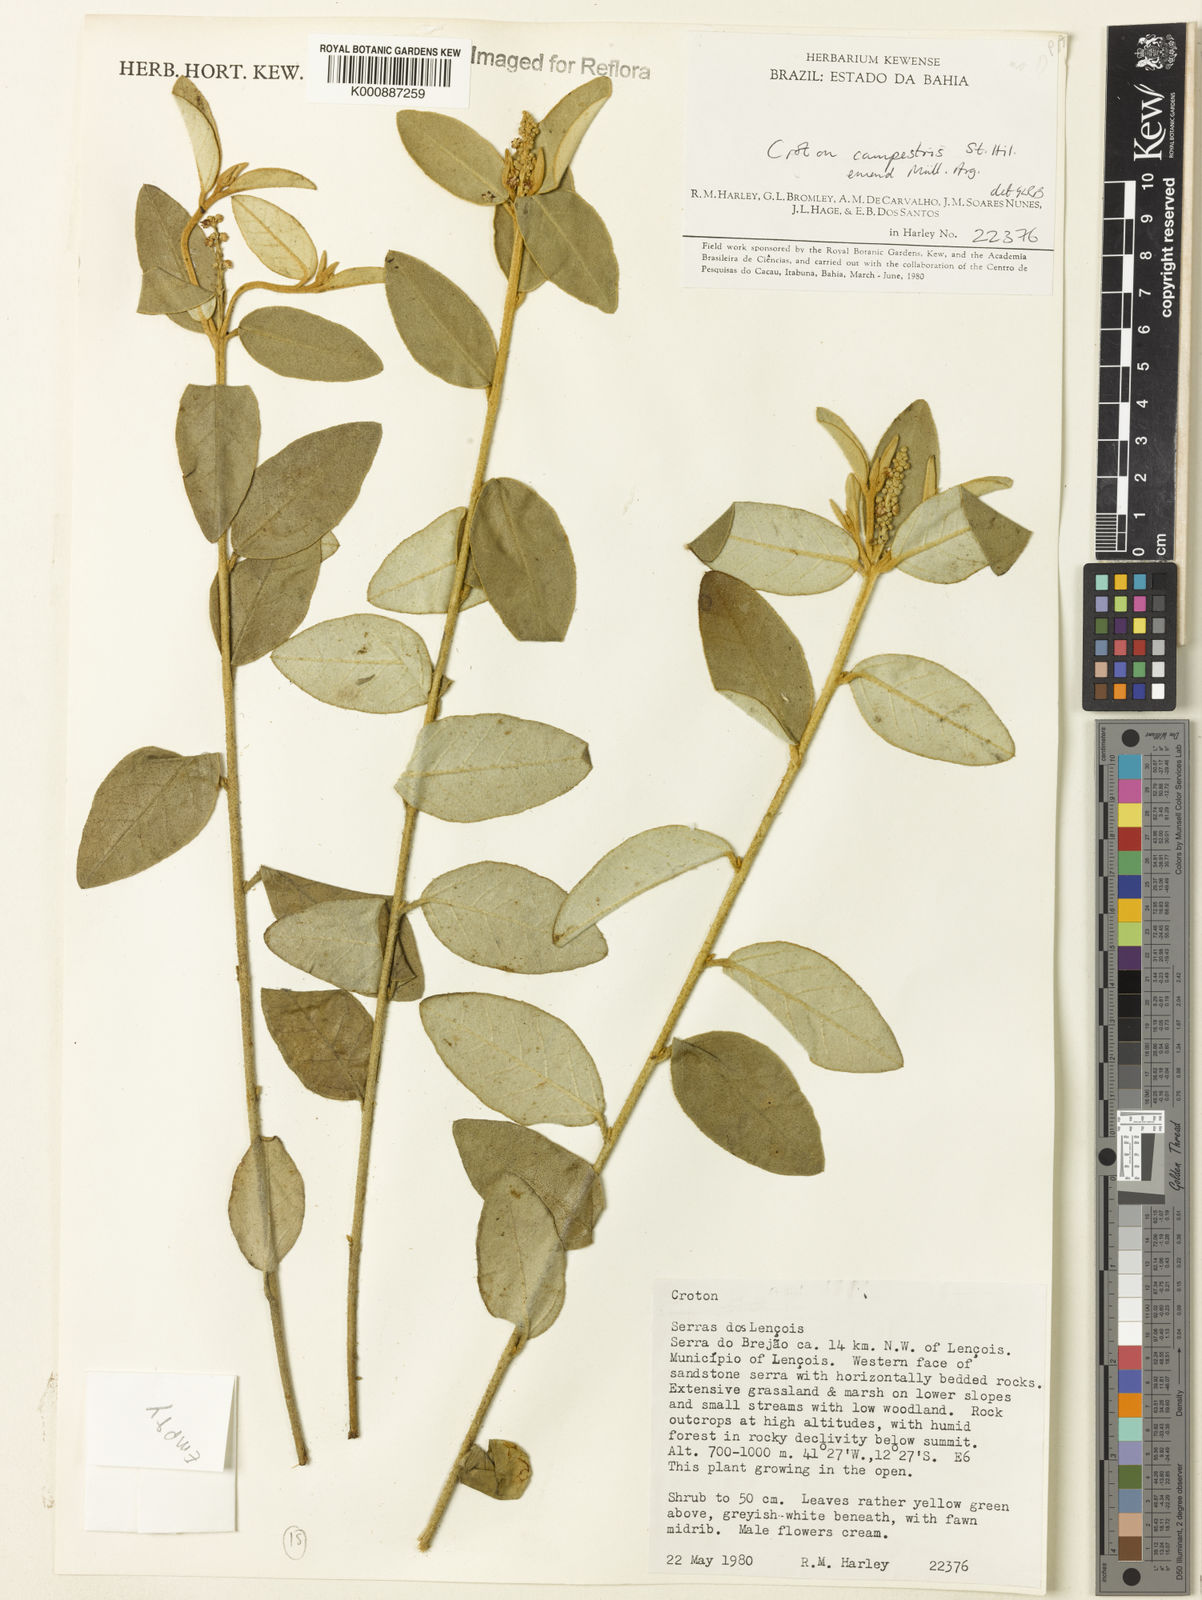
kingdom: Plantae
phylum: Tracheophyta
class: Magnoliopsida
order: Malpighiales
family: Euphorbiaceae
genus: Croton
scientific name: Croton campestris
